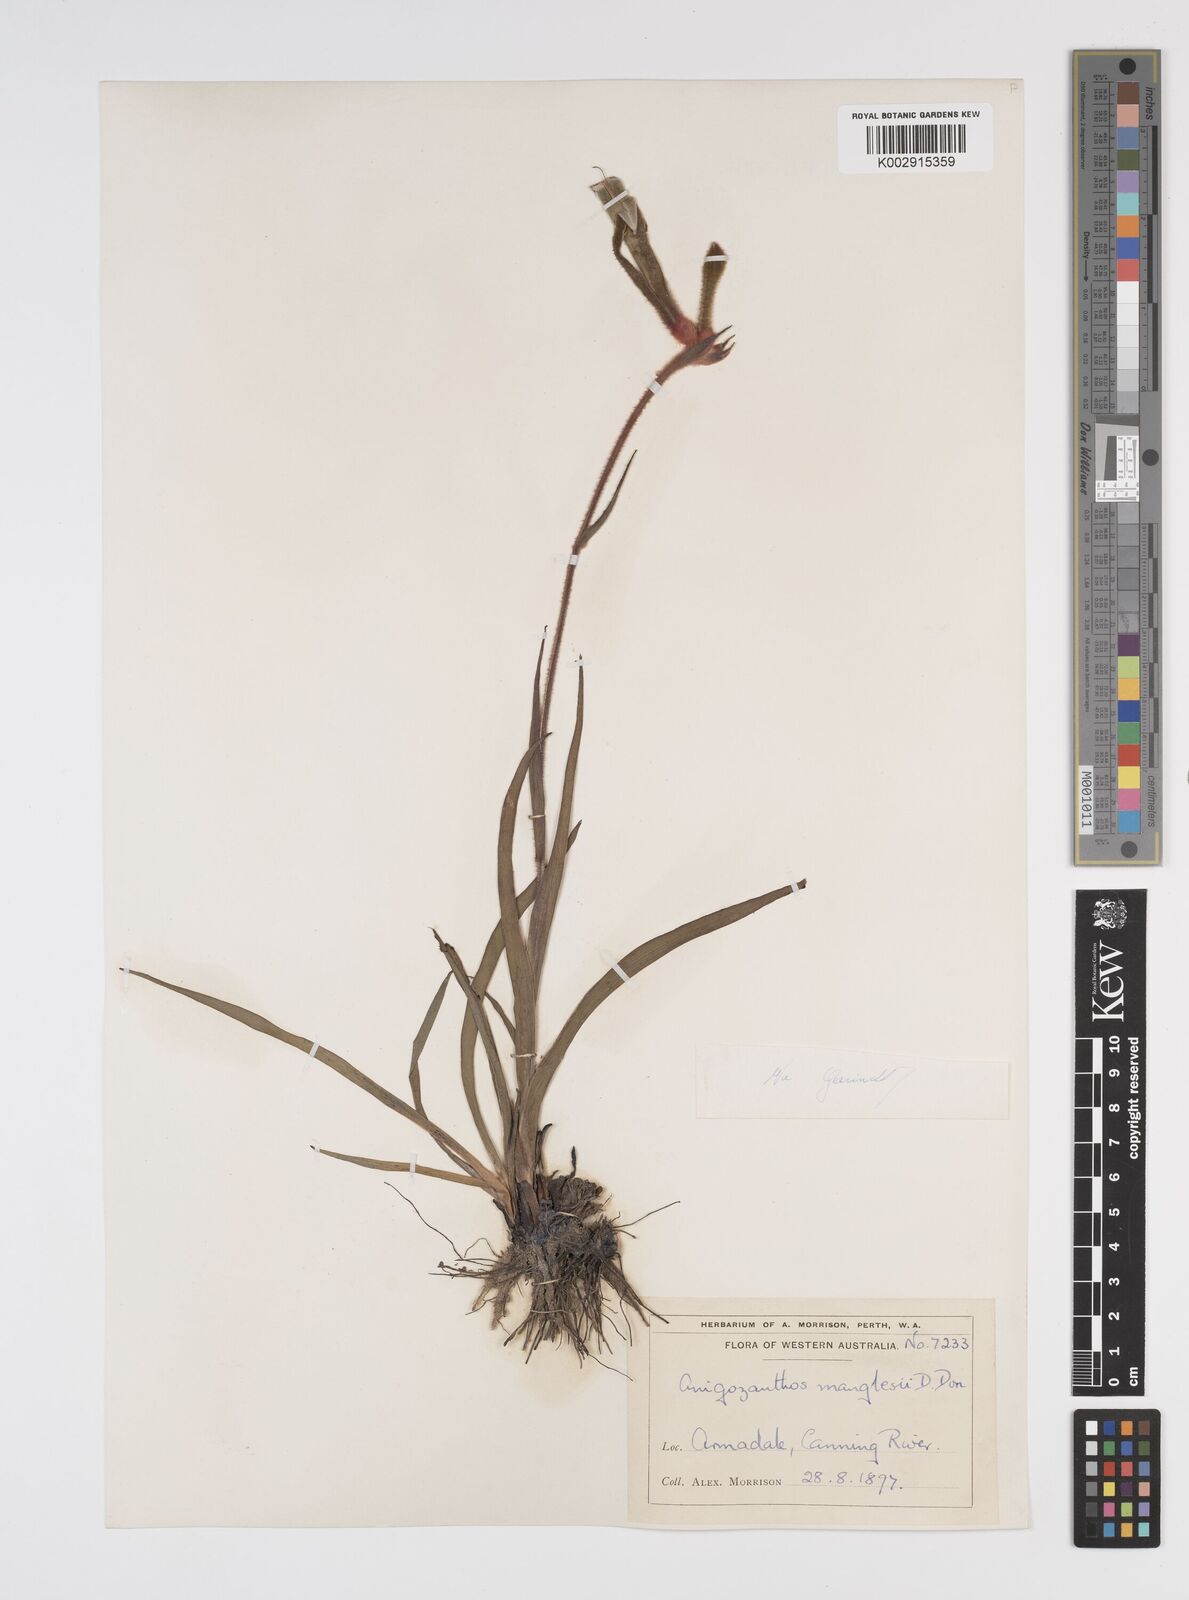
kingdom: Plantae
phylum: Tracheophyta
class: Liliopsida
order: Commelinales
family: Haemodoraceae
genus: Anigozanthos
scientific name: Anigozanthos manglesii
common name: Mangles's kangaroo-paw
